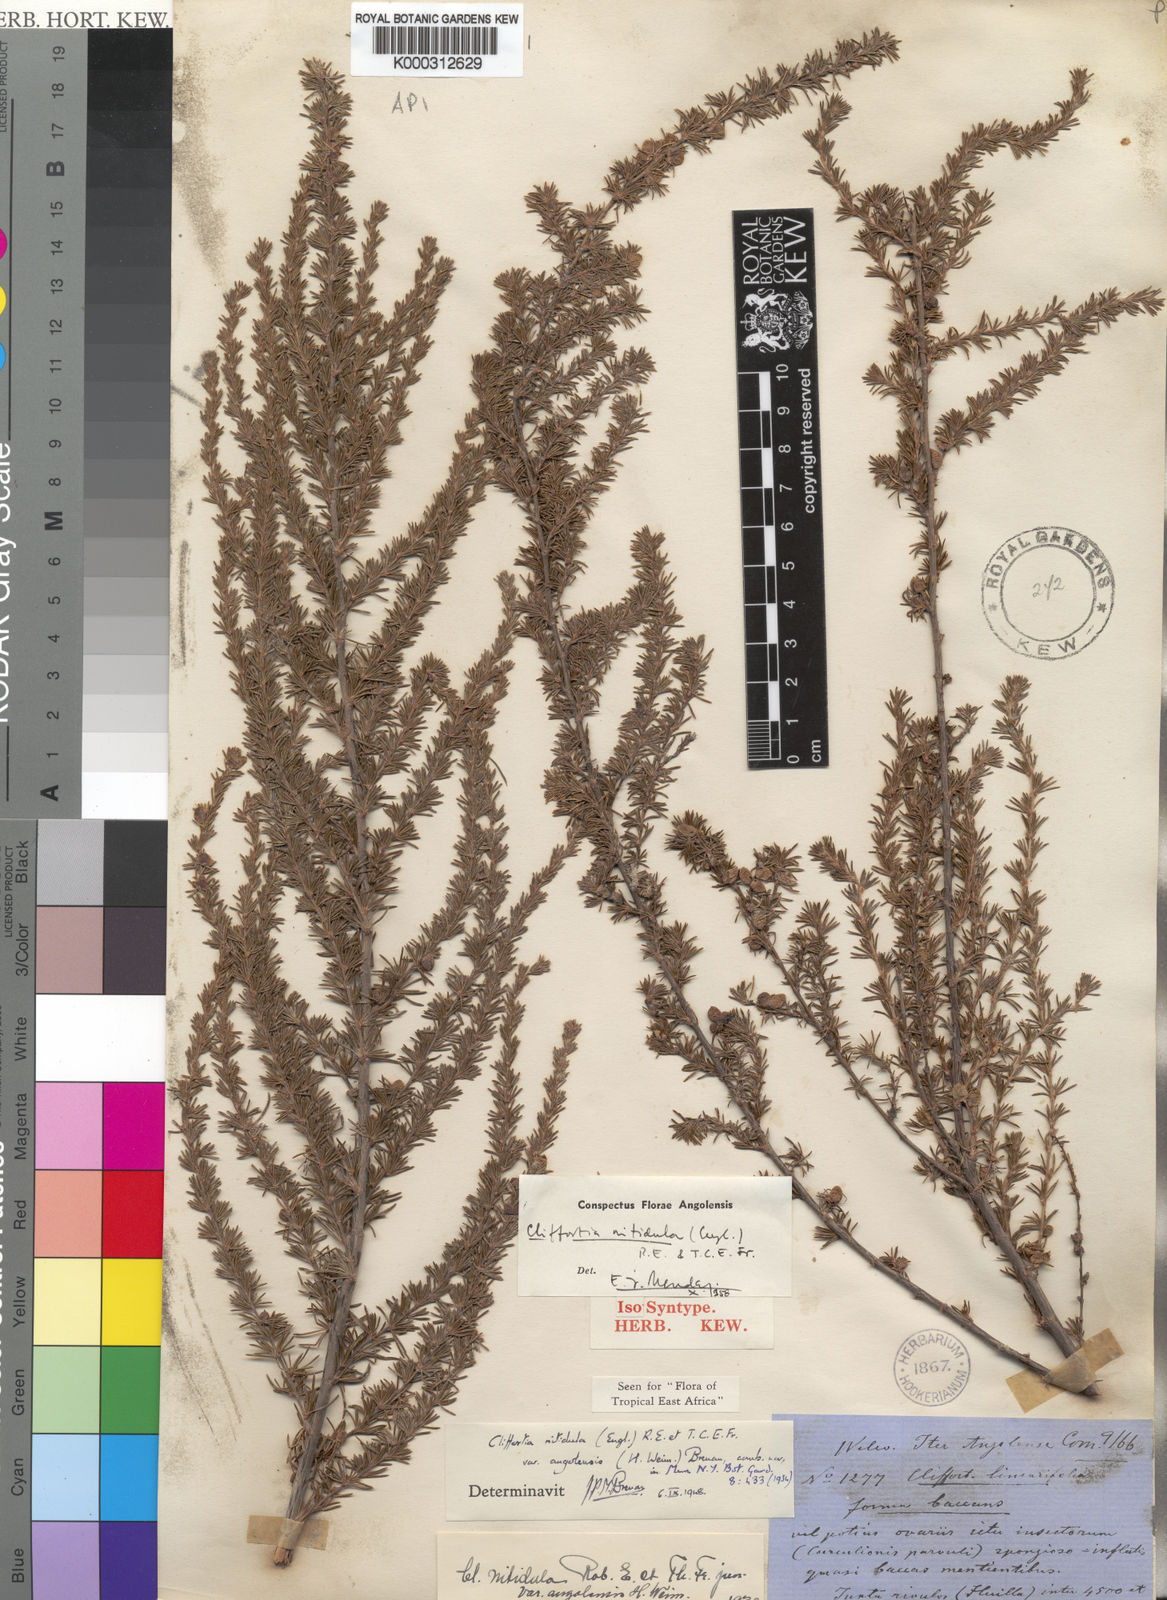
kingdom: Plantae
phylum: Tracheophyta
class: Magnoliopsida
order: Rosales
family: Rosaceae
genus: Cliffortia
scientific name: Cliffortia linearifolia
